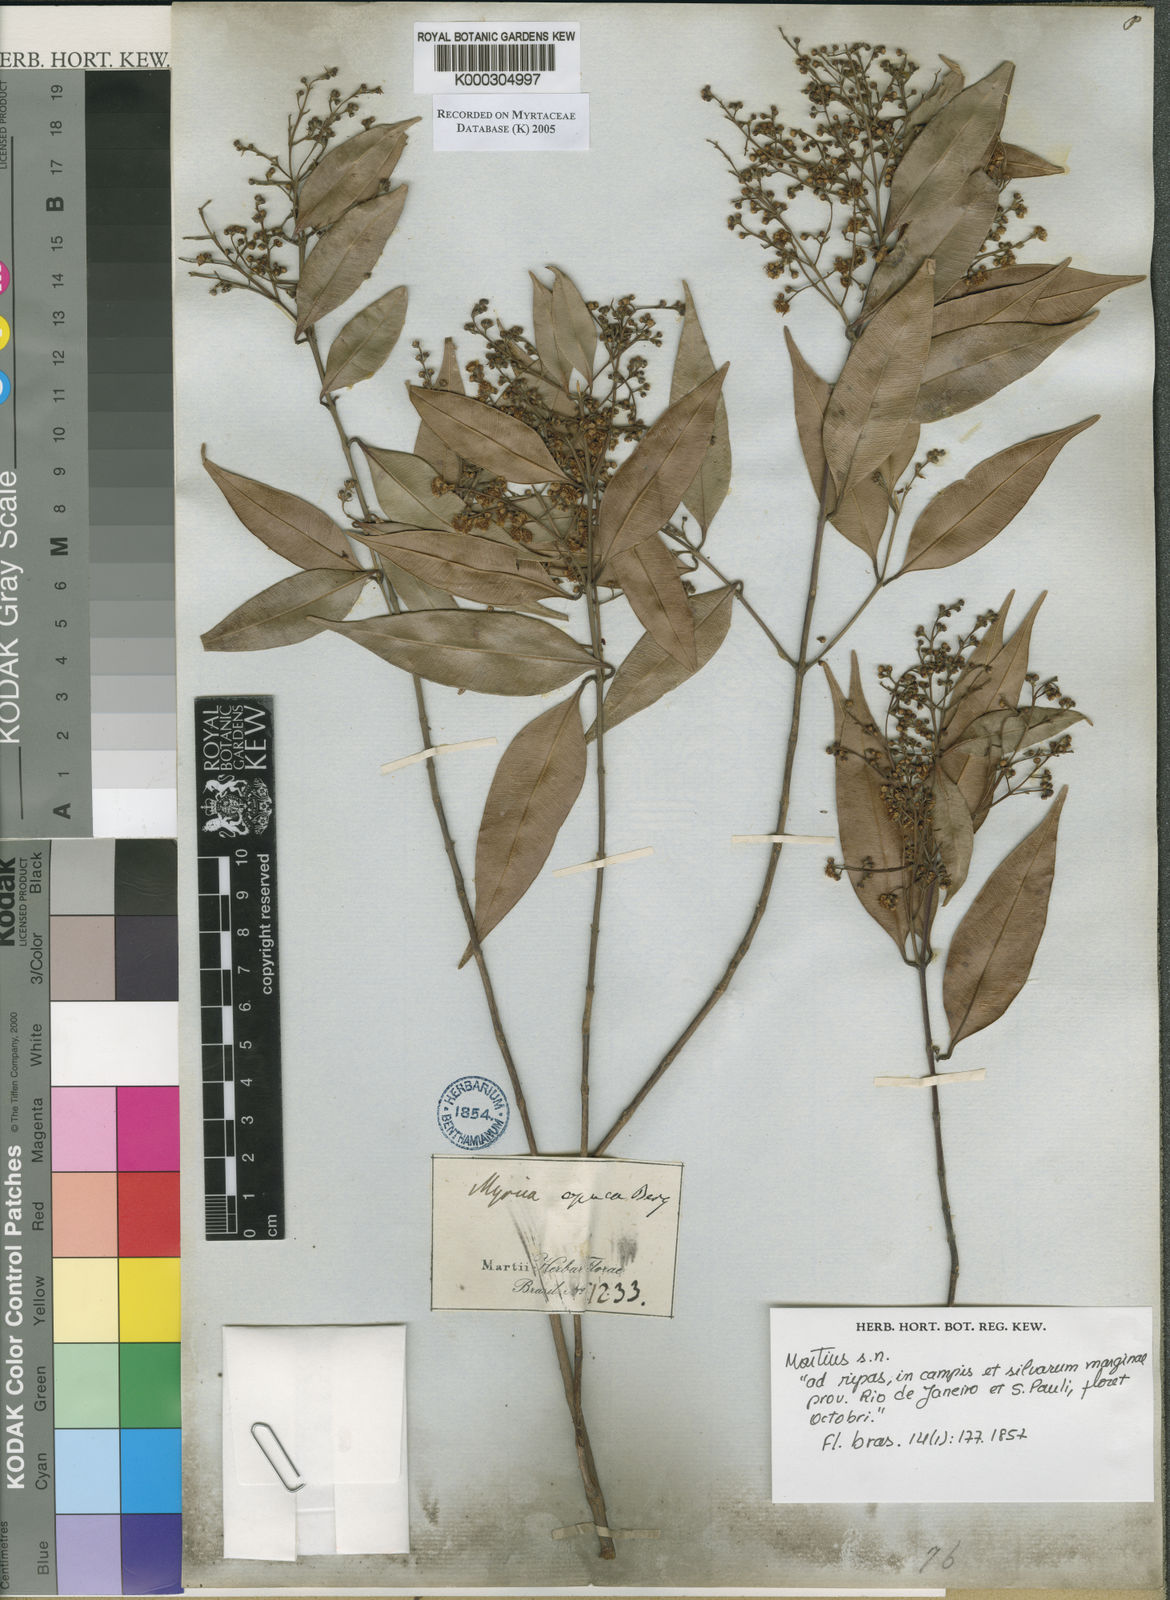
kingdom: Plantae
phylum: Tracheophyta
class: Magnoliopsida
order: Myrtales
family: Myrtaceae
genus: Myrcia
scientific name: Myrcia splendens
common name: Surinam cherry
